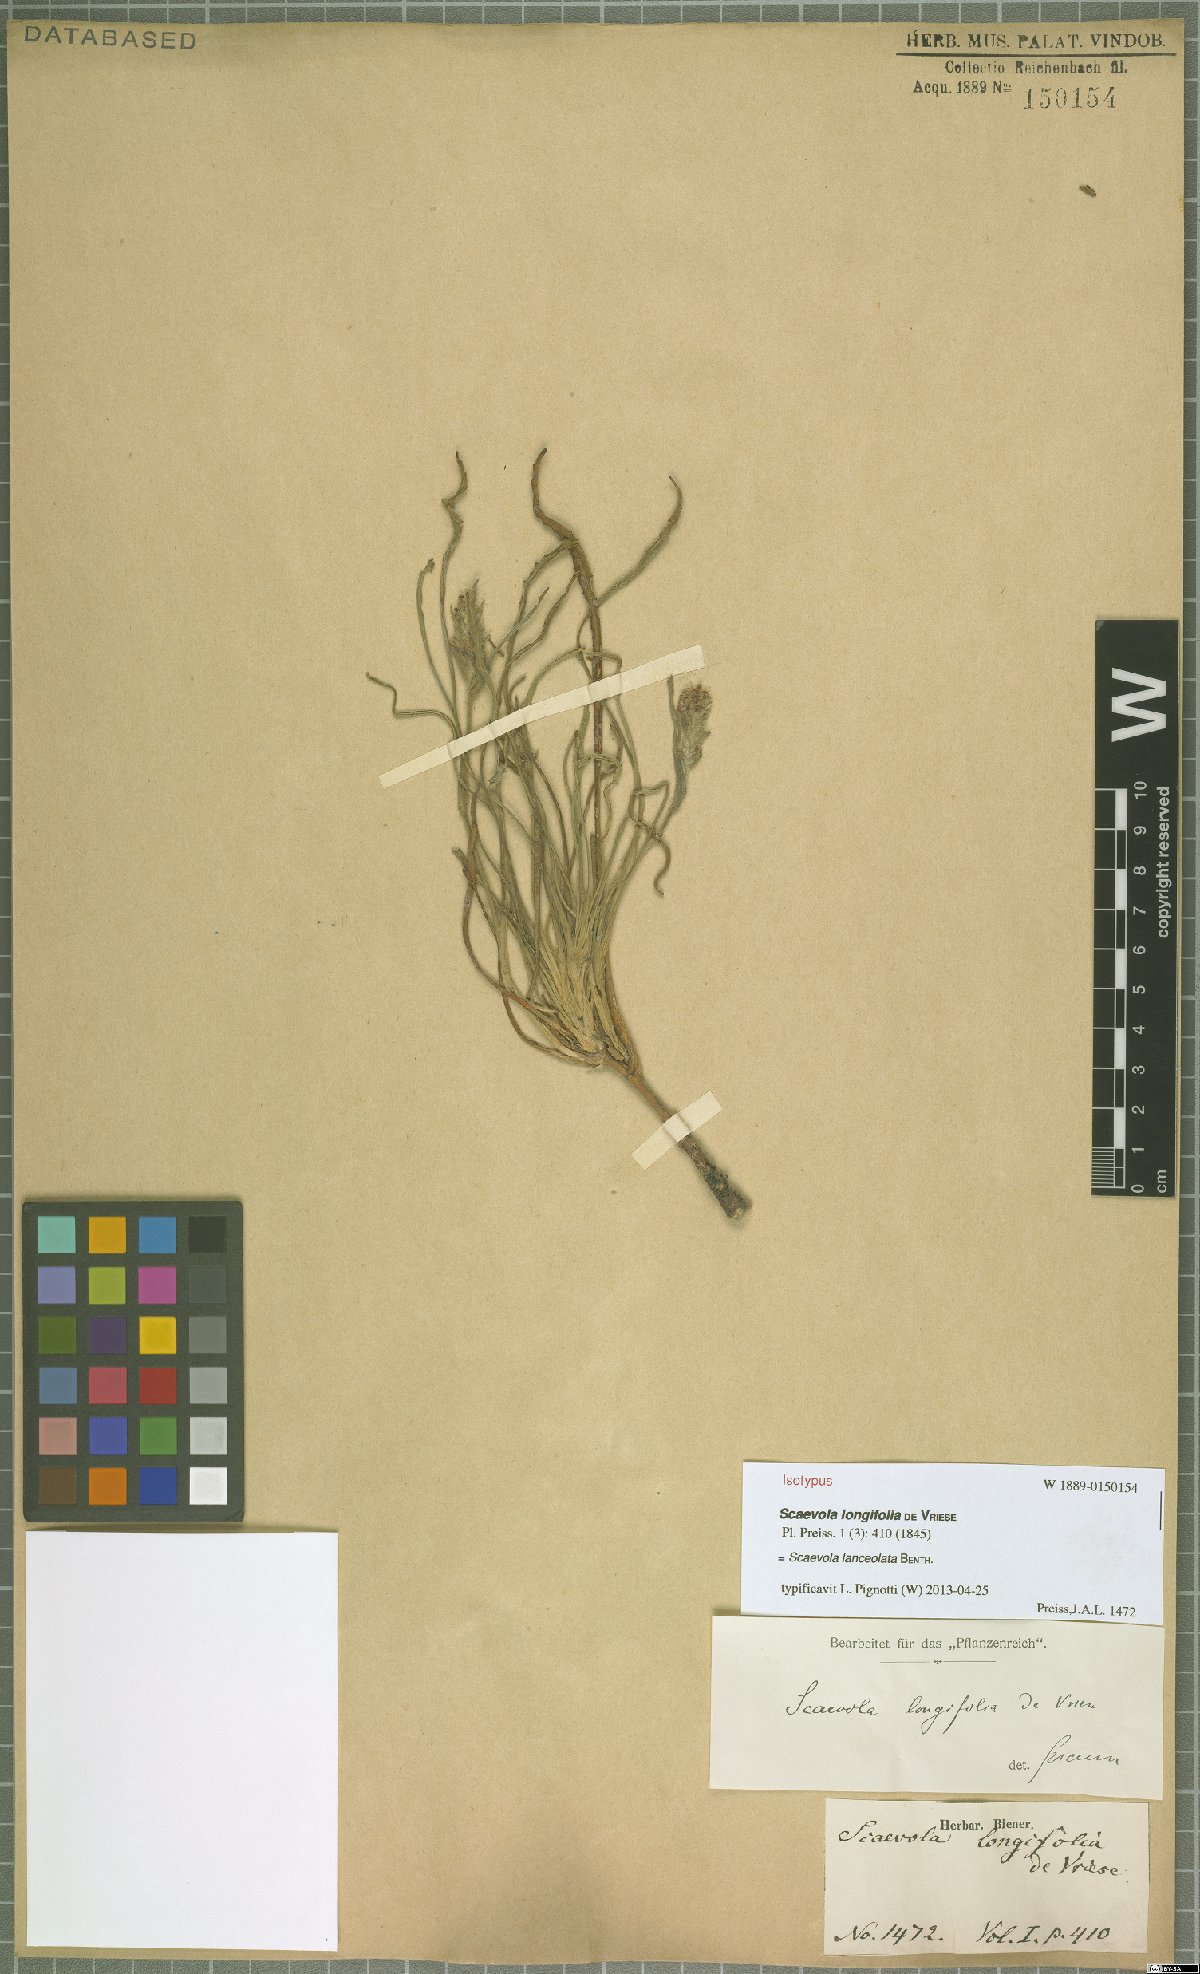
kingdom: Plantae
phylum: Tracheophyta
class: Magnoliopsida
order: Asterales
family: Goodeniaceae
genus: Scaevola
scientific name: Scaevola lanceolata
